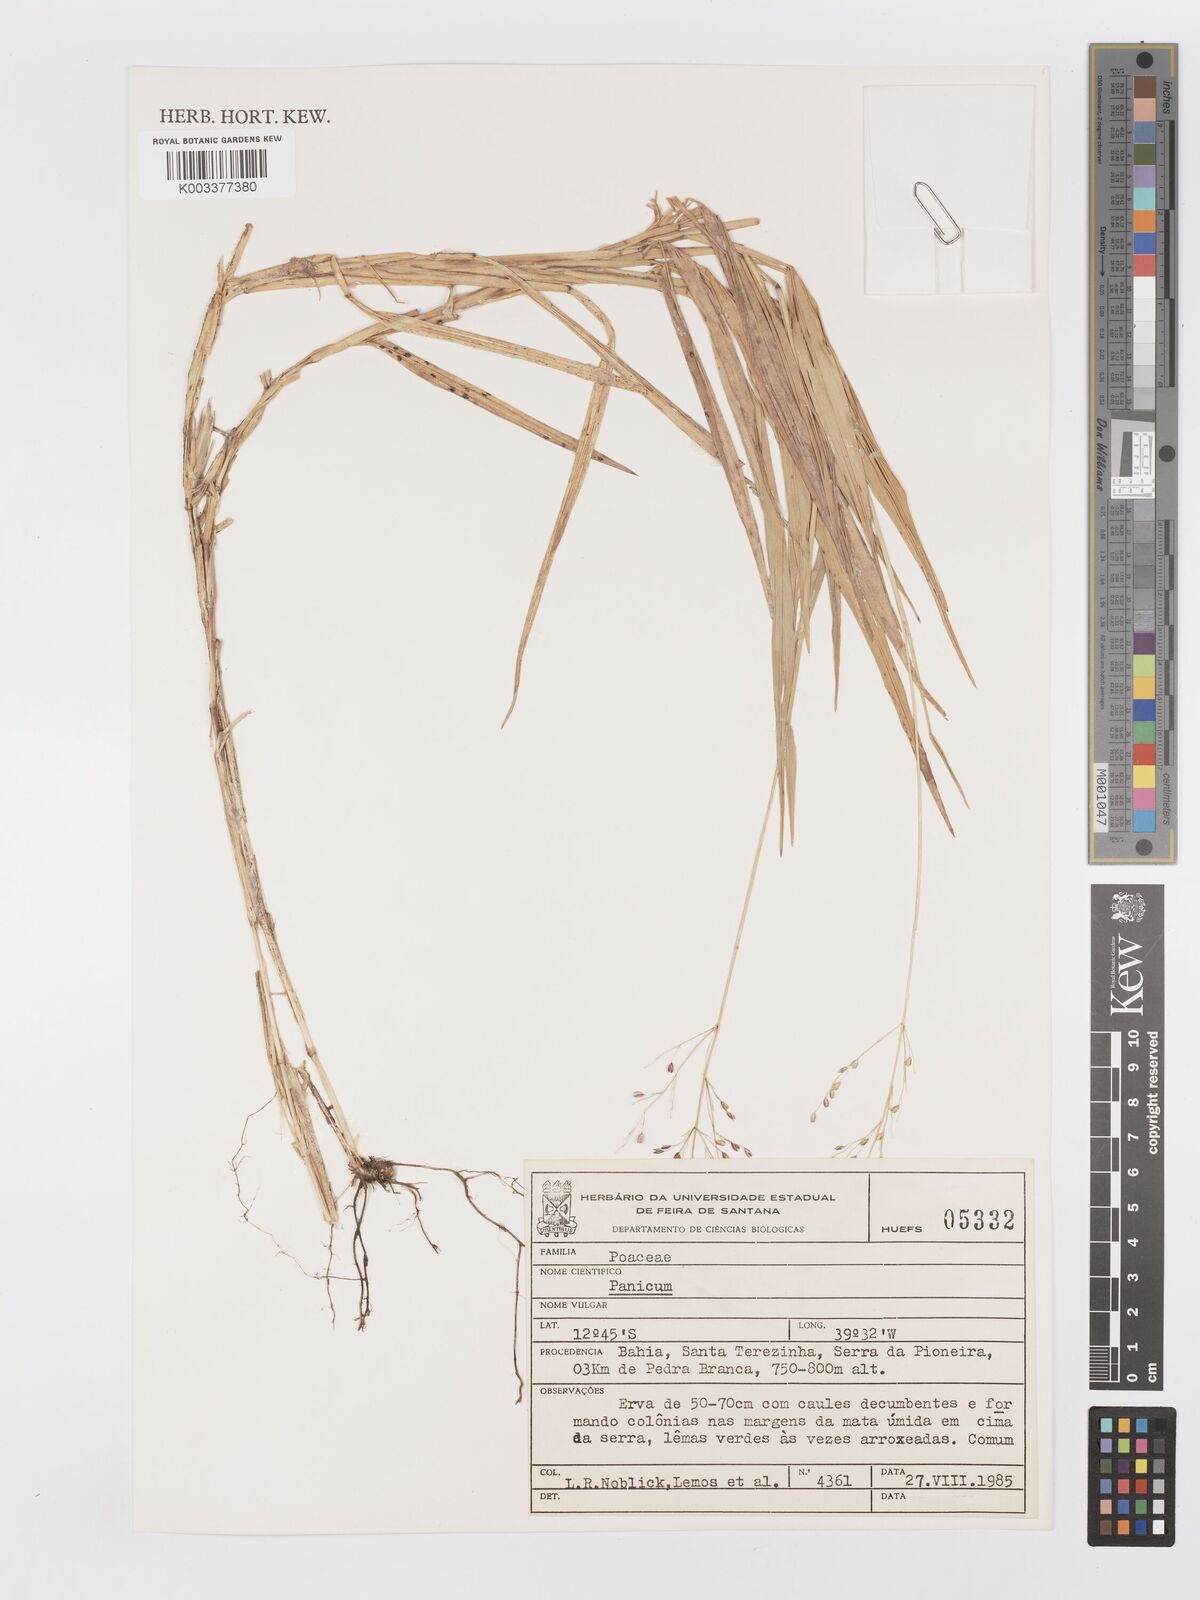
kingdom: Plantae
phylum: Tracheophyta
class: Liliopsida
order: Poales
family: Poaceae
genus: Panicum
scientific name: Panicum
